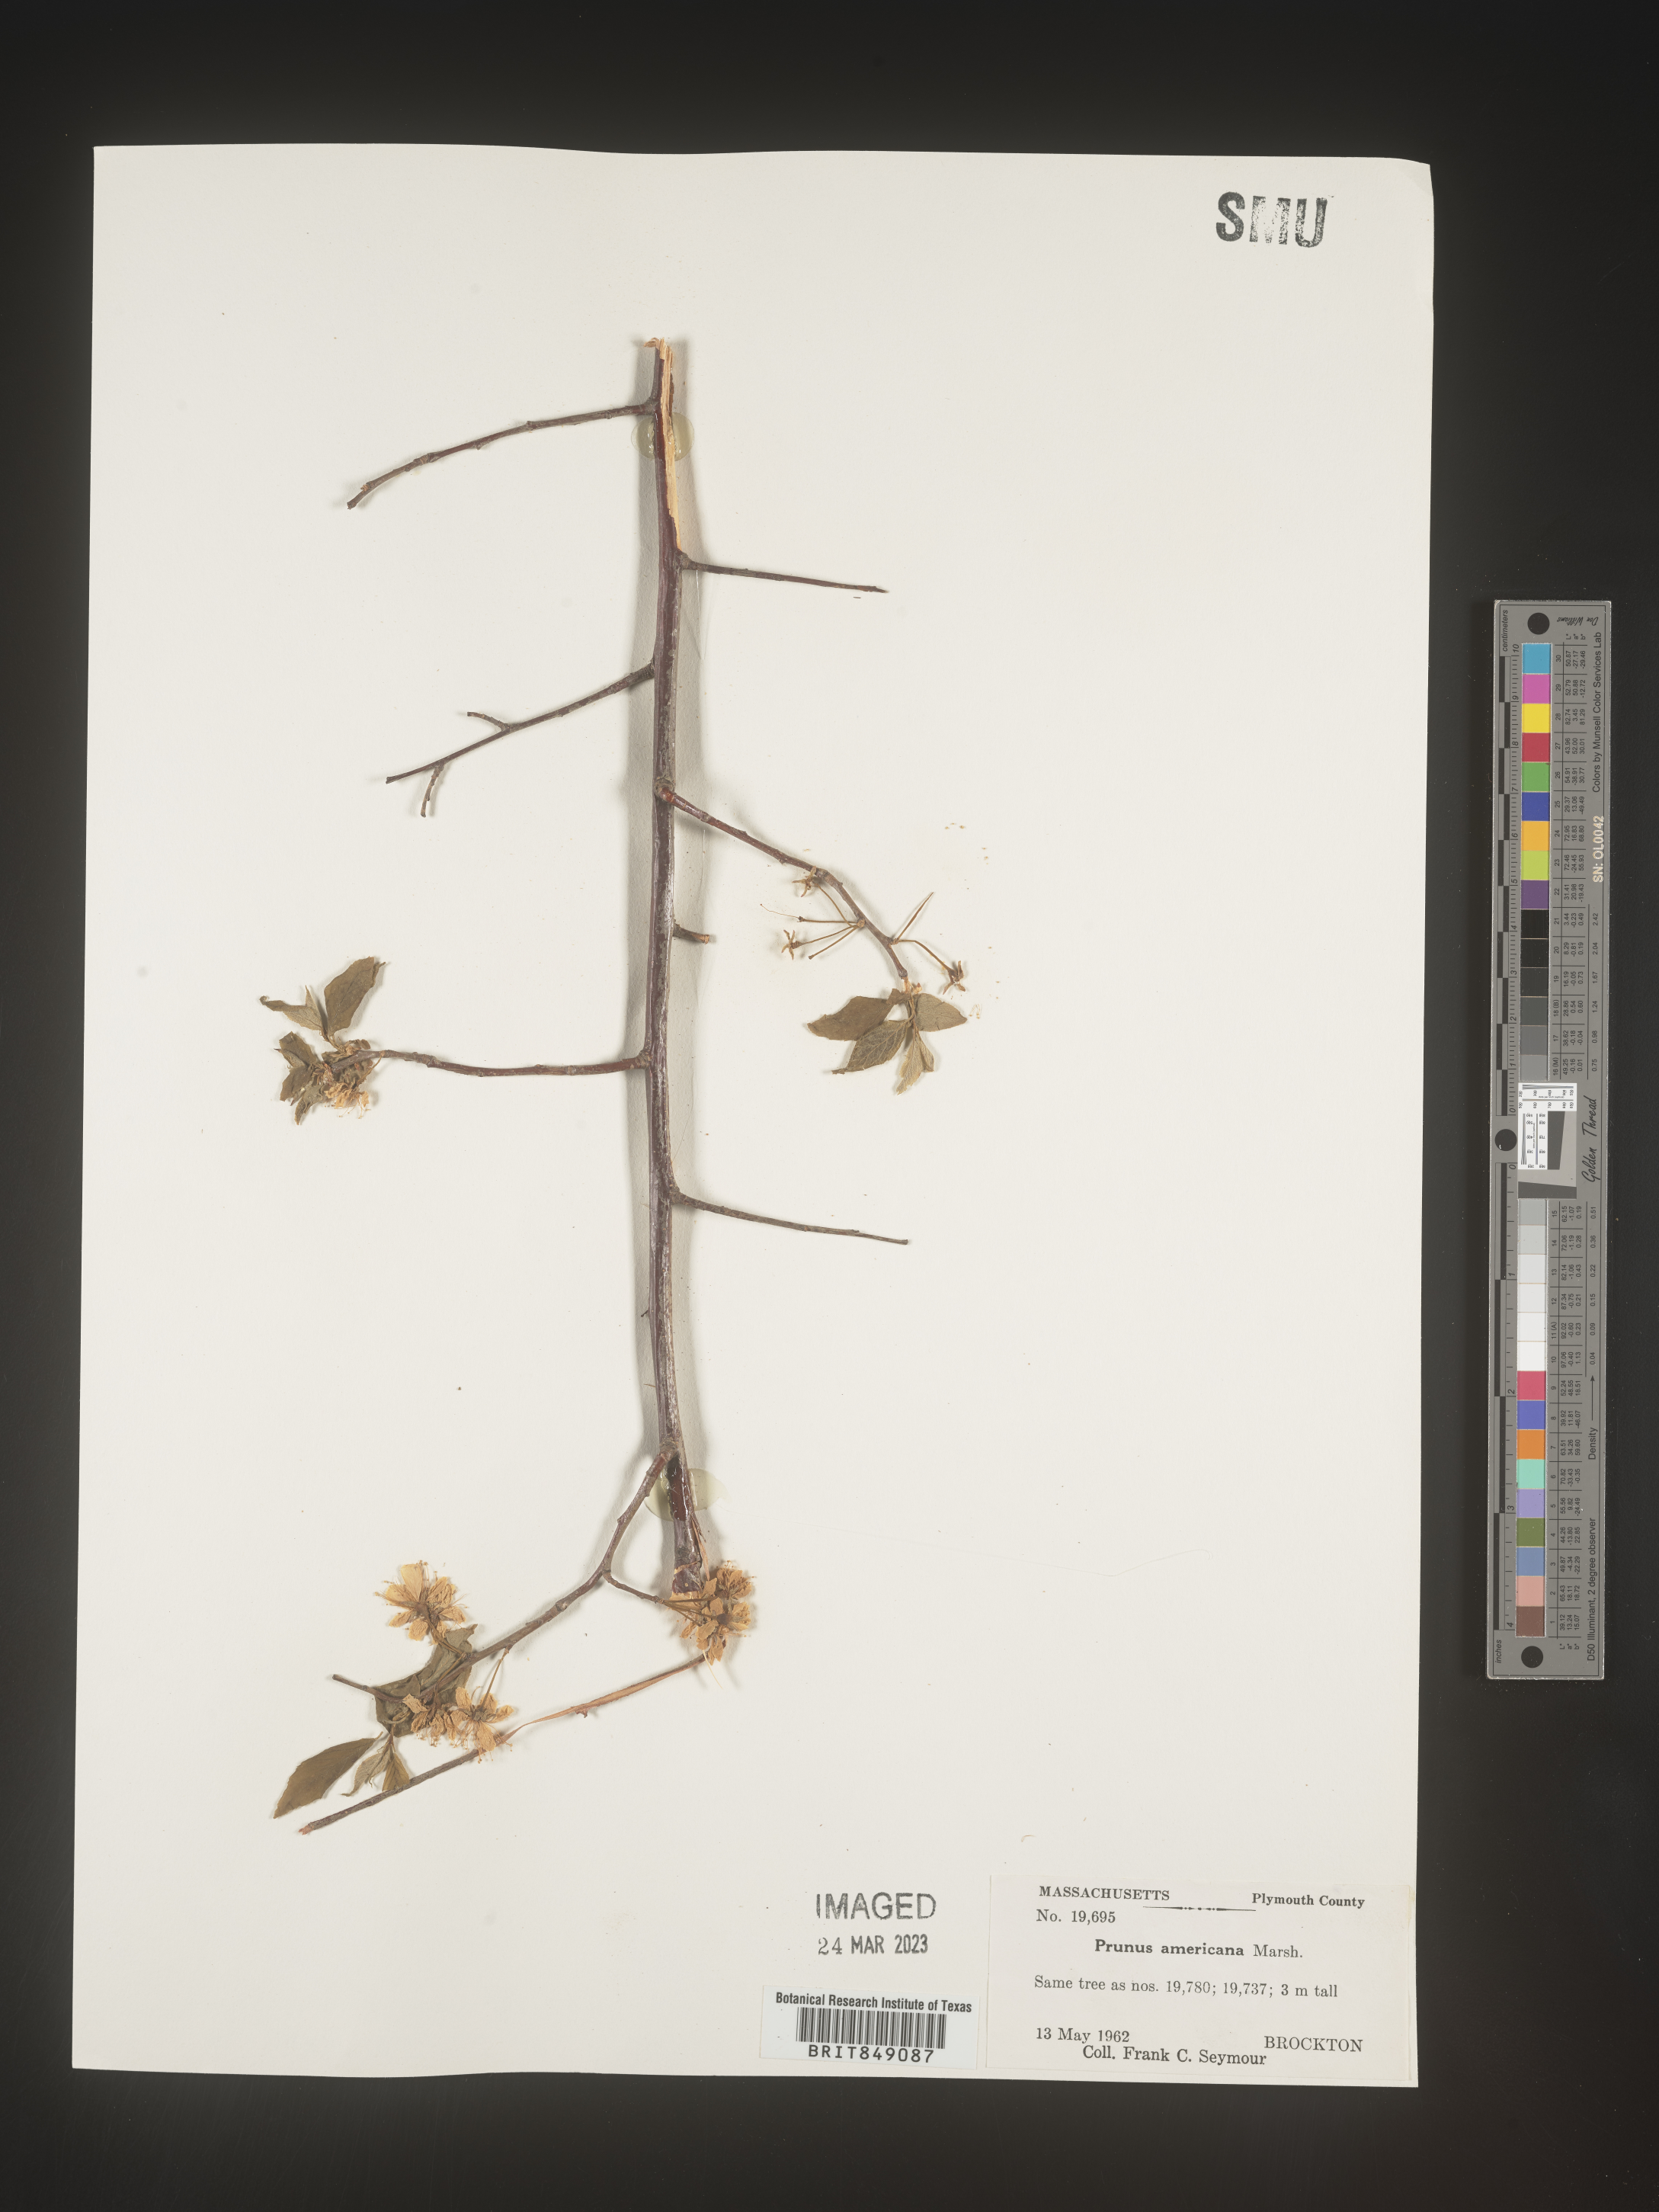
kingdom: Plantae
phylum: Tracheophyta
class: Magnoliopsida
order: Rosales
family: Rosaceae
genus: Prunus
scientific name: Prunus americana
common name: American plum
